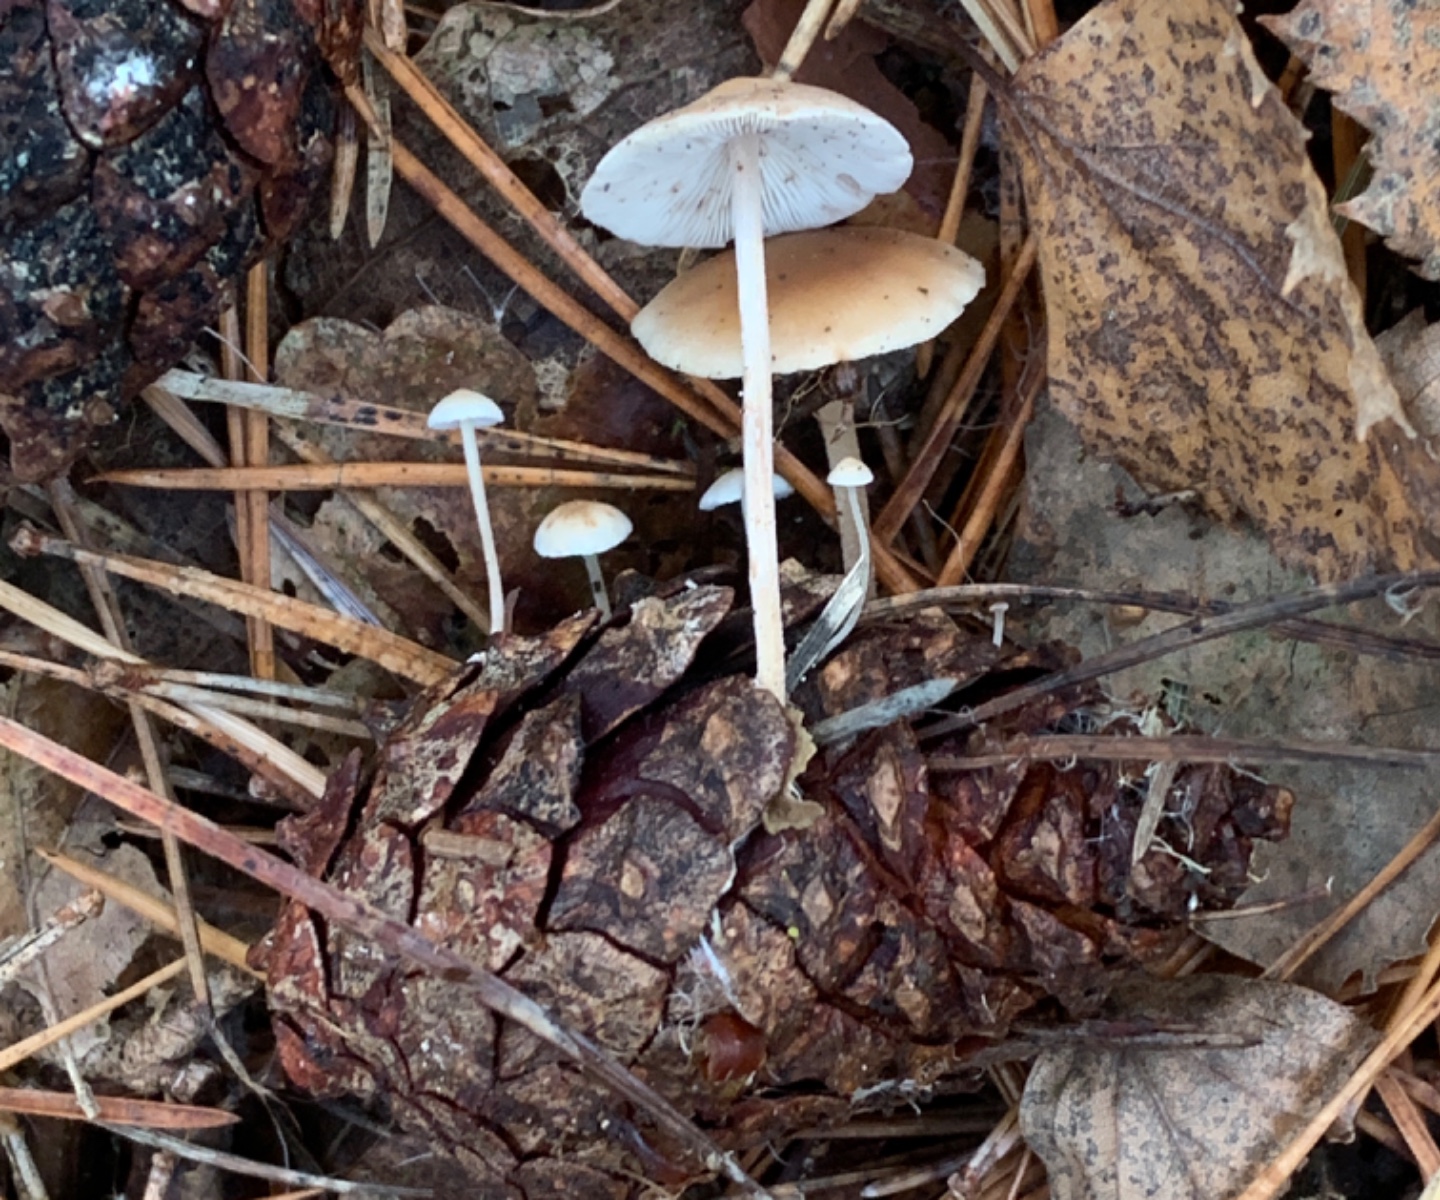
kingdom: Fungi
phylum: Basidiomycota
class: Agaricomycetes
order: Agaricales
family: Marasmiaceae
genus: Baeospora
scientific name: Baeospora myosura
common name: koglebruskhat
